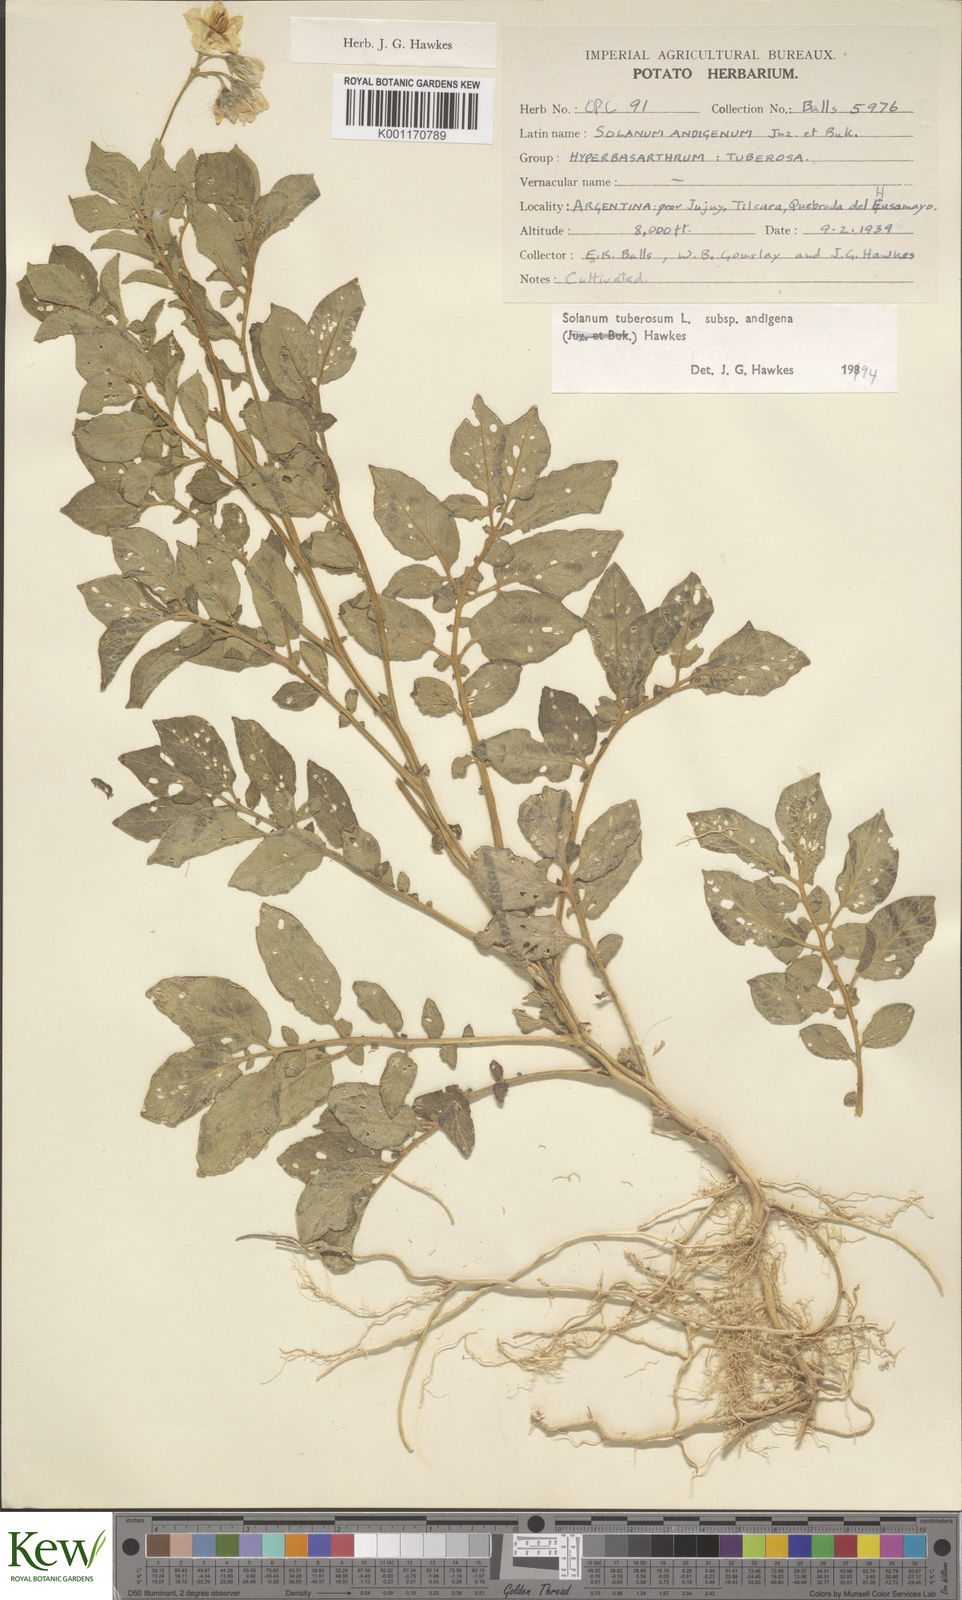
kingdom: Plantae
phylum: Tracheophyta
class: Magnoliopsida
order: Solanales
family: Solanaceae
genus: Solanum
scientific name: Solanum tuberosum
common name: Potato
